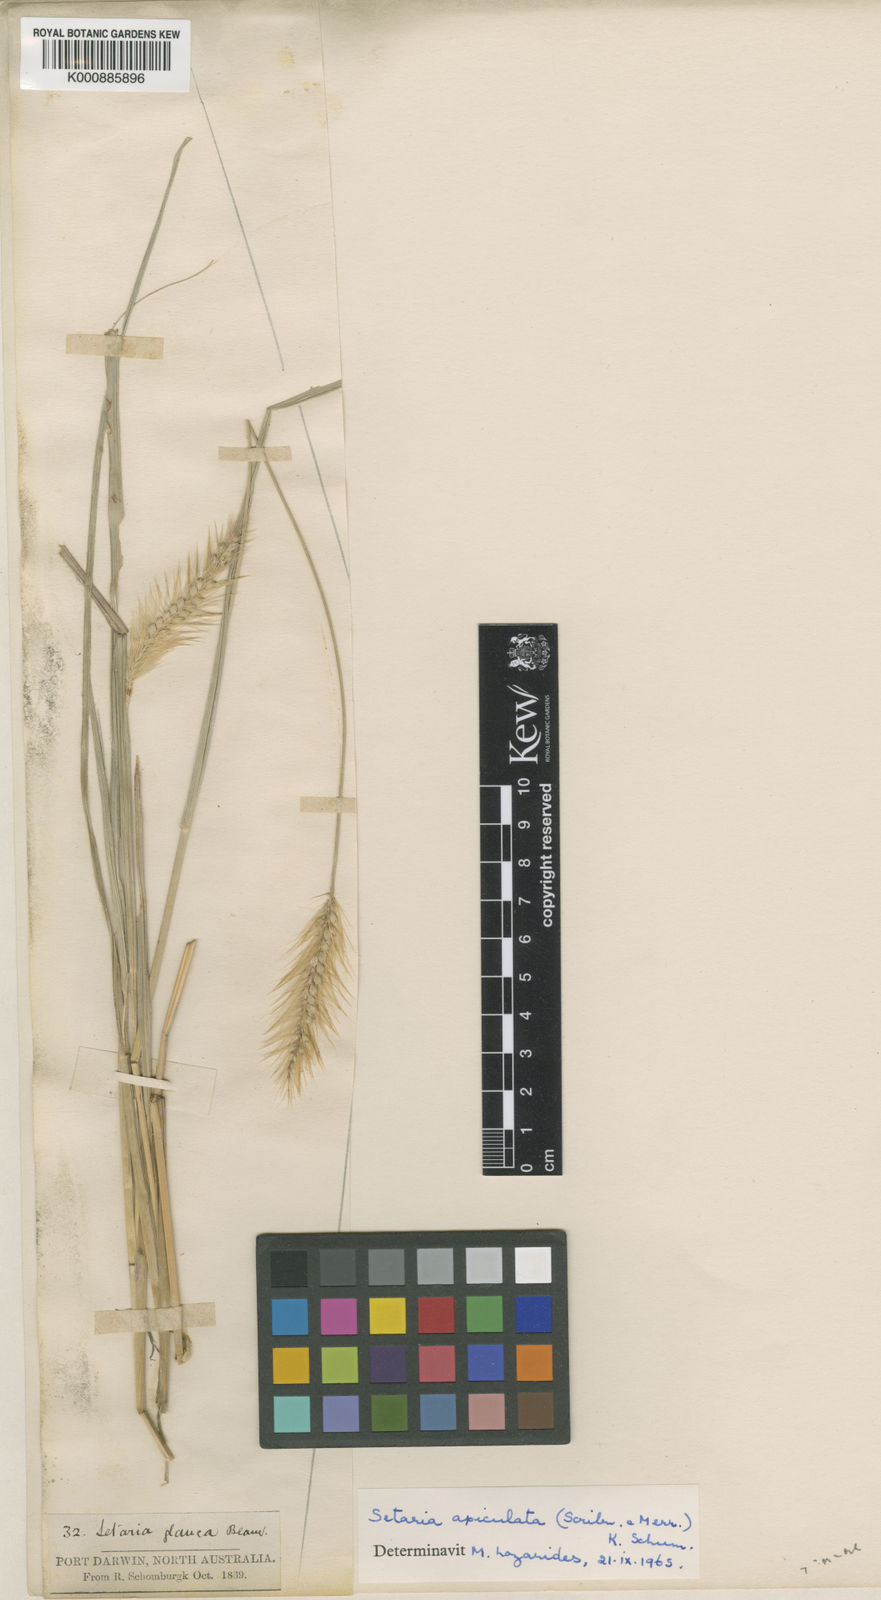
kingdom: Plantae
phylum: Tracheophyta
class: Liliopsida
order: Poales
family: Poaceae
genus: Setaria
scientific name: Setaria apiculata
